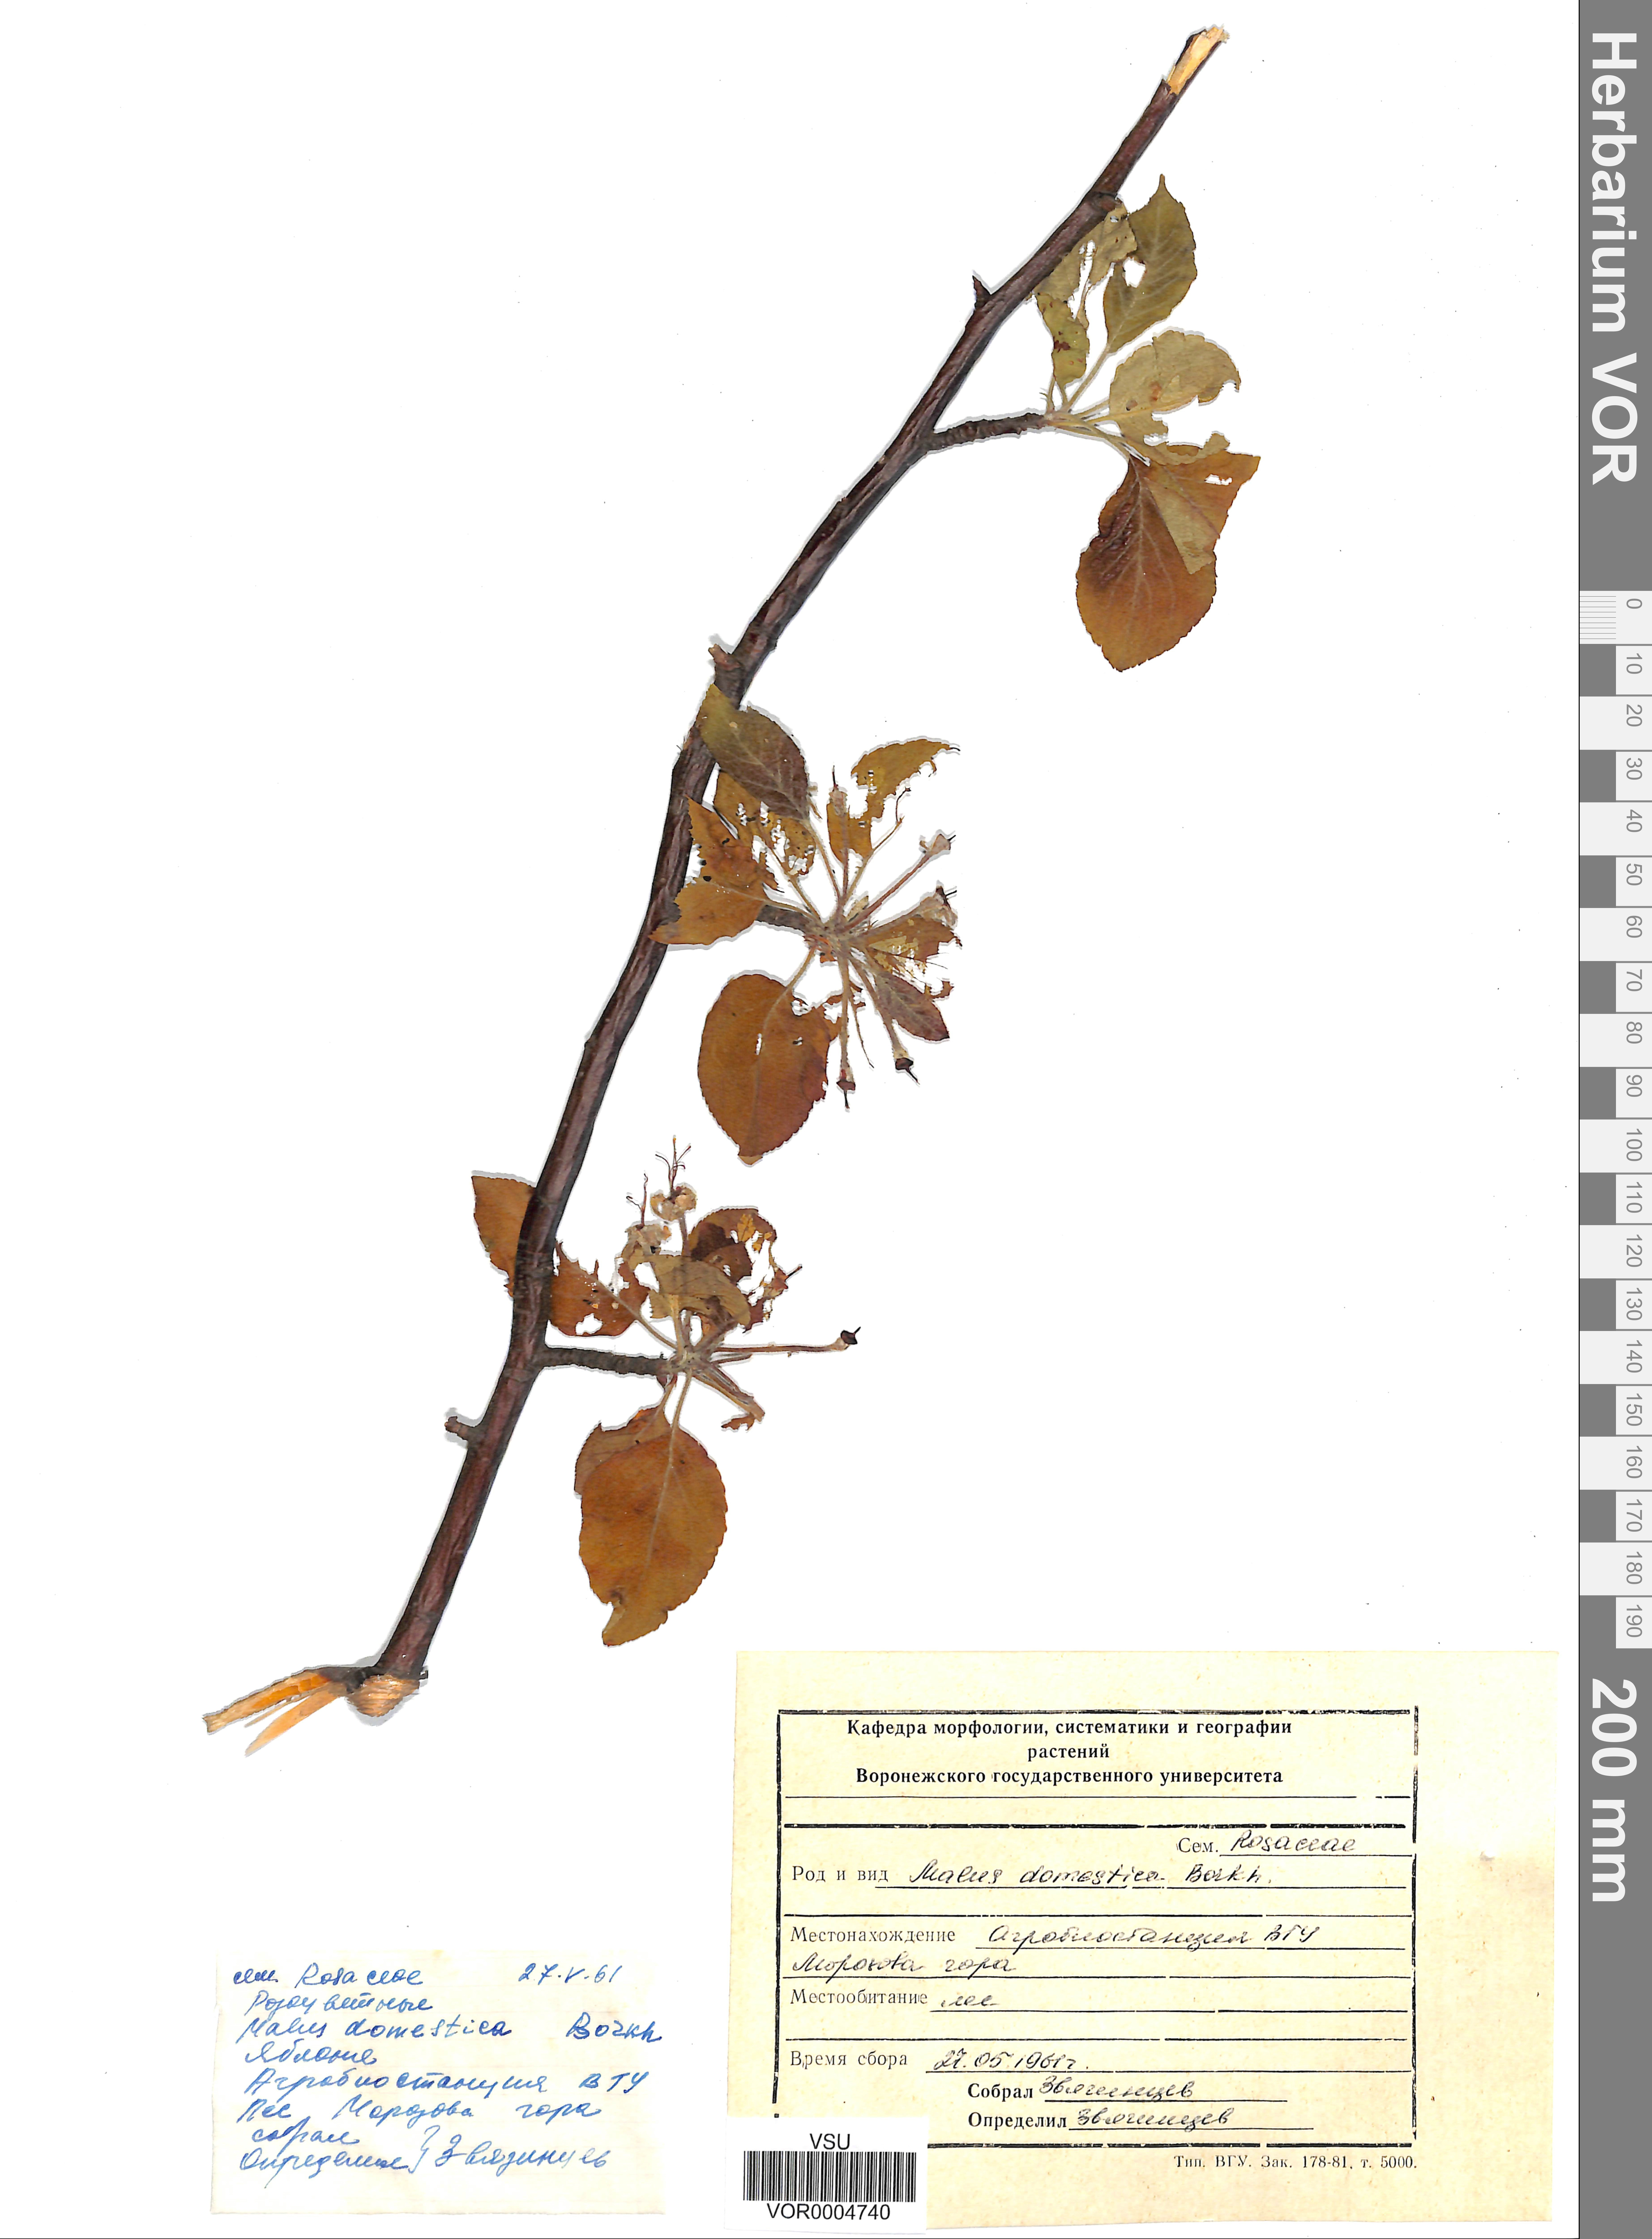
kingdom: Plantae
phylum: Tracheophyta
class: Magnoliopsida
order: Rosales
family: Rosaceae
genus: Malus
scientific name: Malus domestica
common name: Apple
